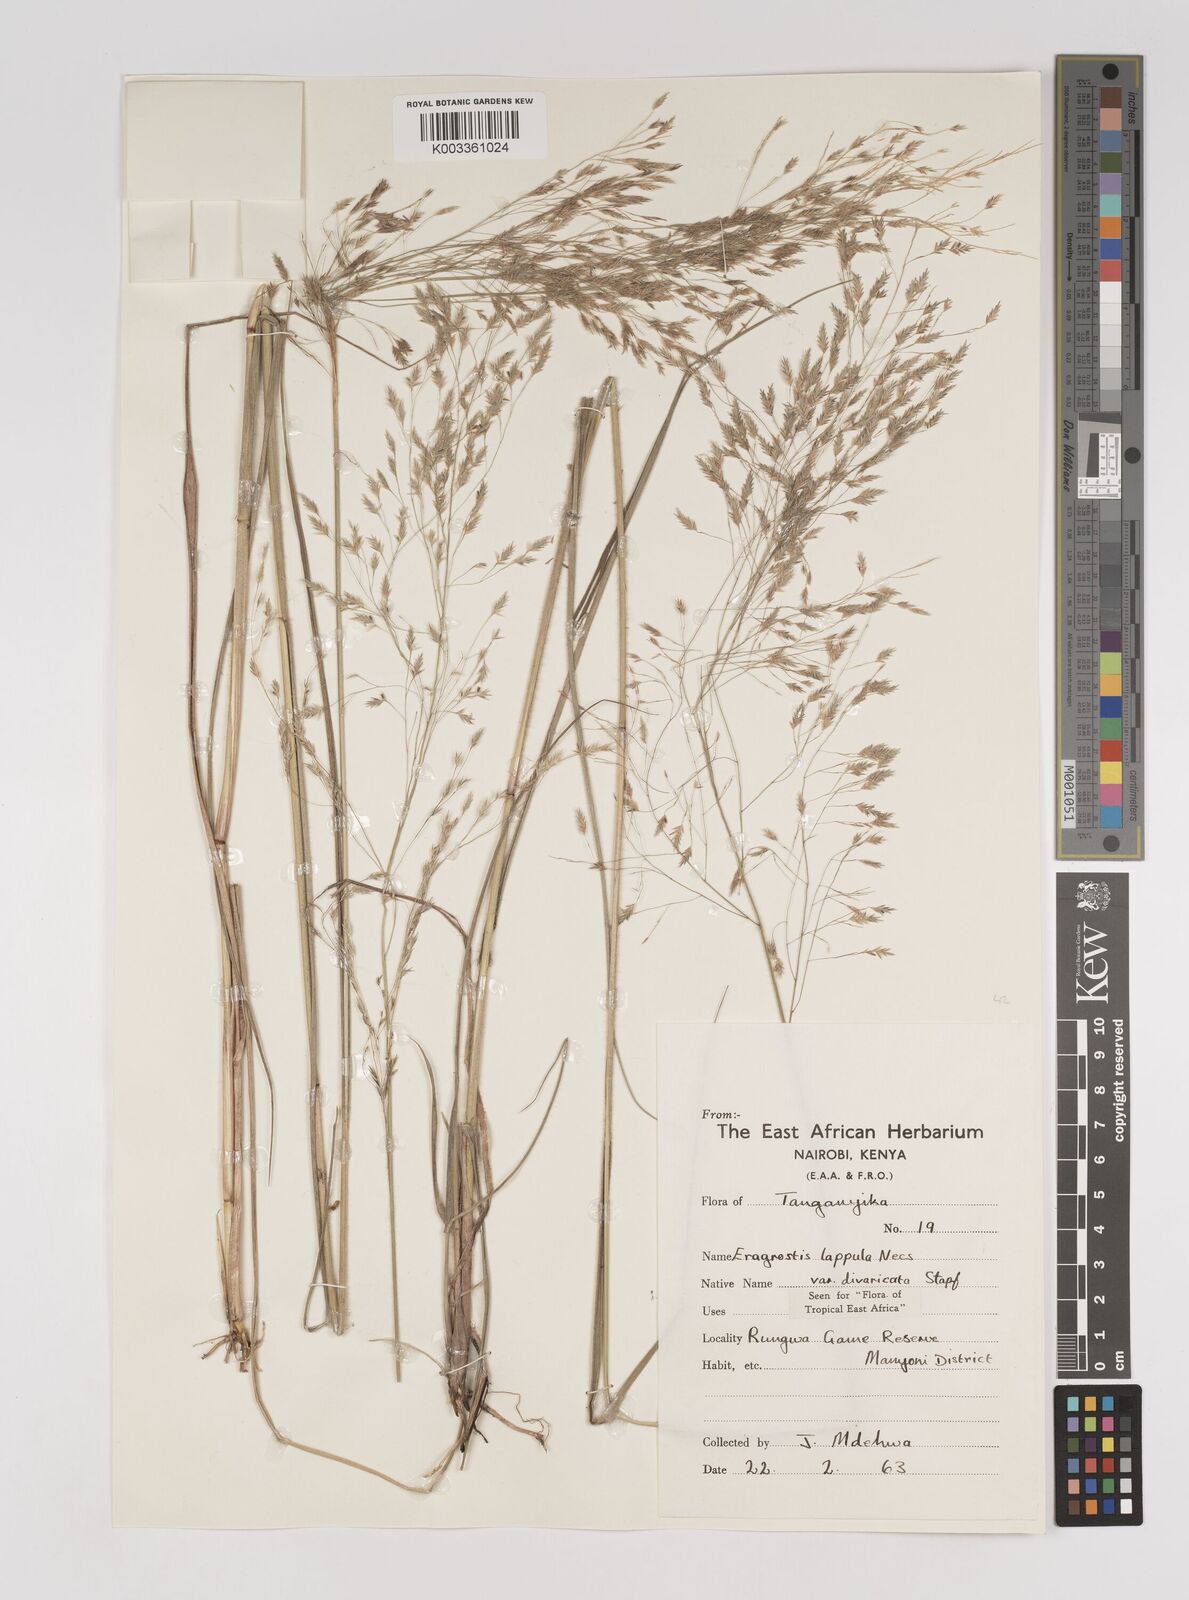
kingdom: Plantae
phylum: Tracheophyta
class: Liliopsida
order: Poales
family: Poaceae
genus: Eragrostis
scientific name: Eragrostis lappula
